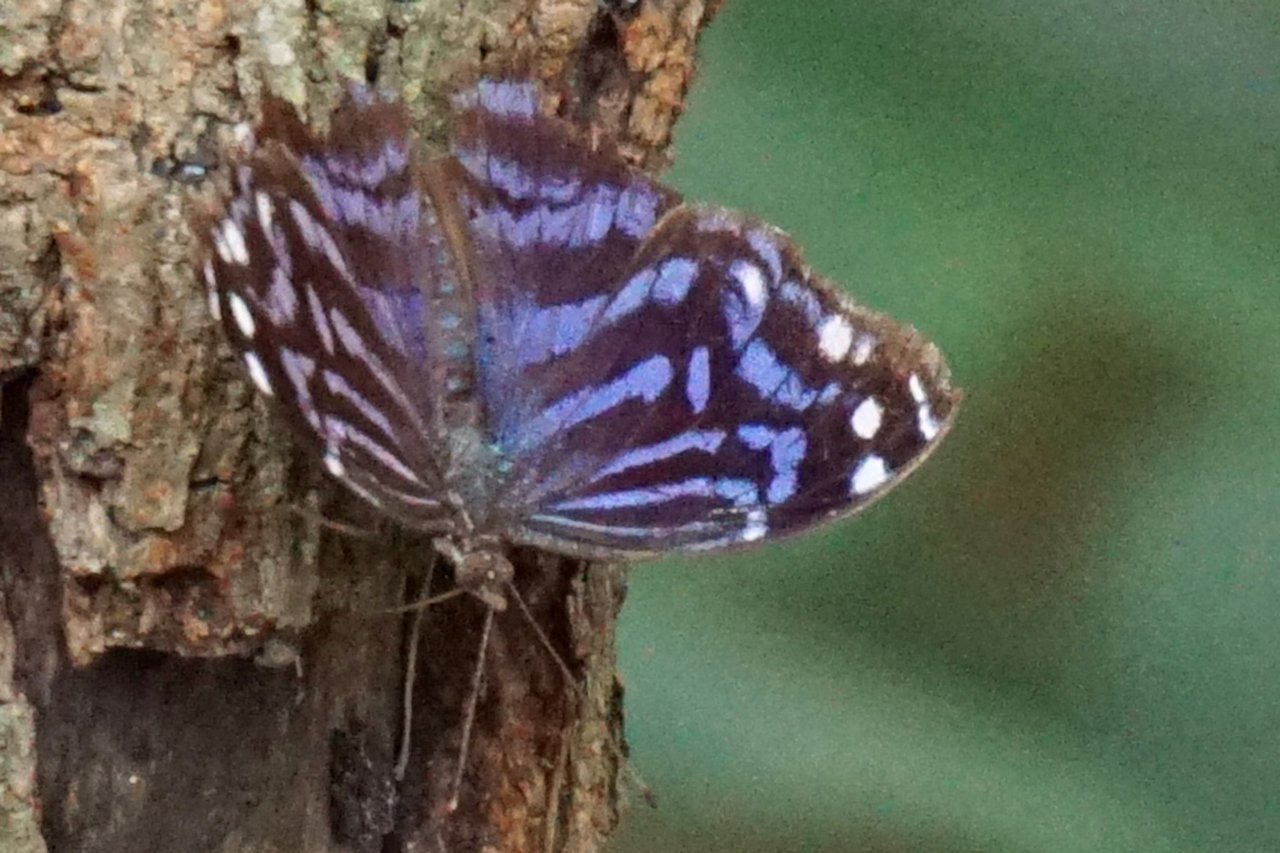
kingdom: Animalia
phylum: Arthropoda
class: Insecta
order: Lepidoptera
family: Nymphalidae
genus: Myscelia
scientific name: Myscelia ethusa
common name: Mexican Bluewing
